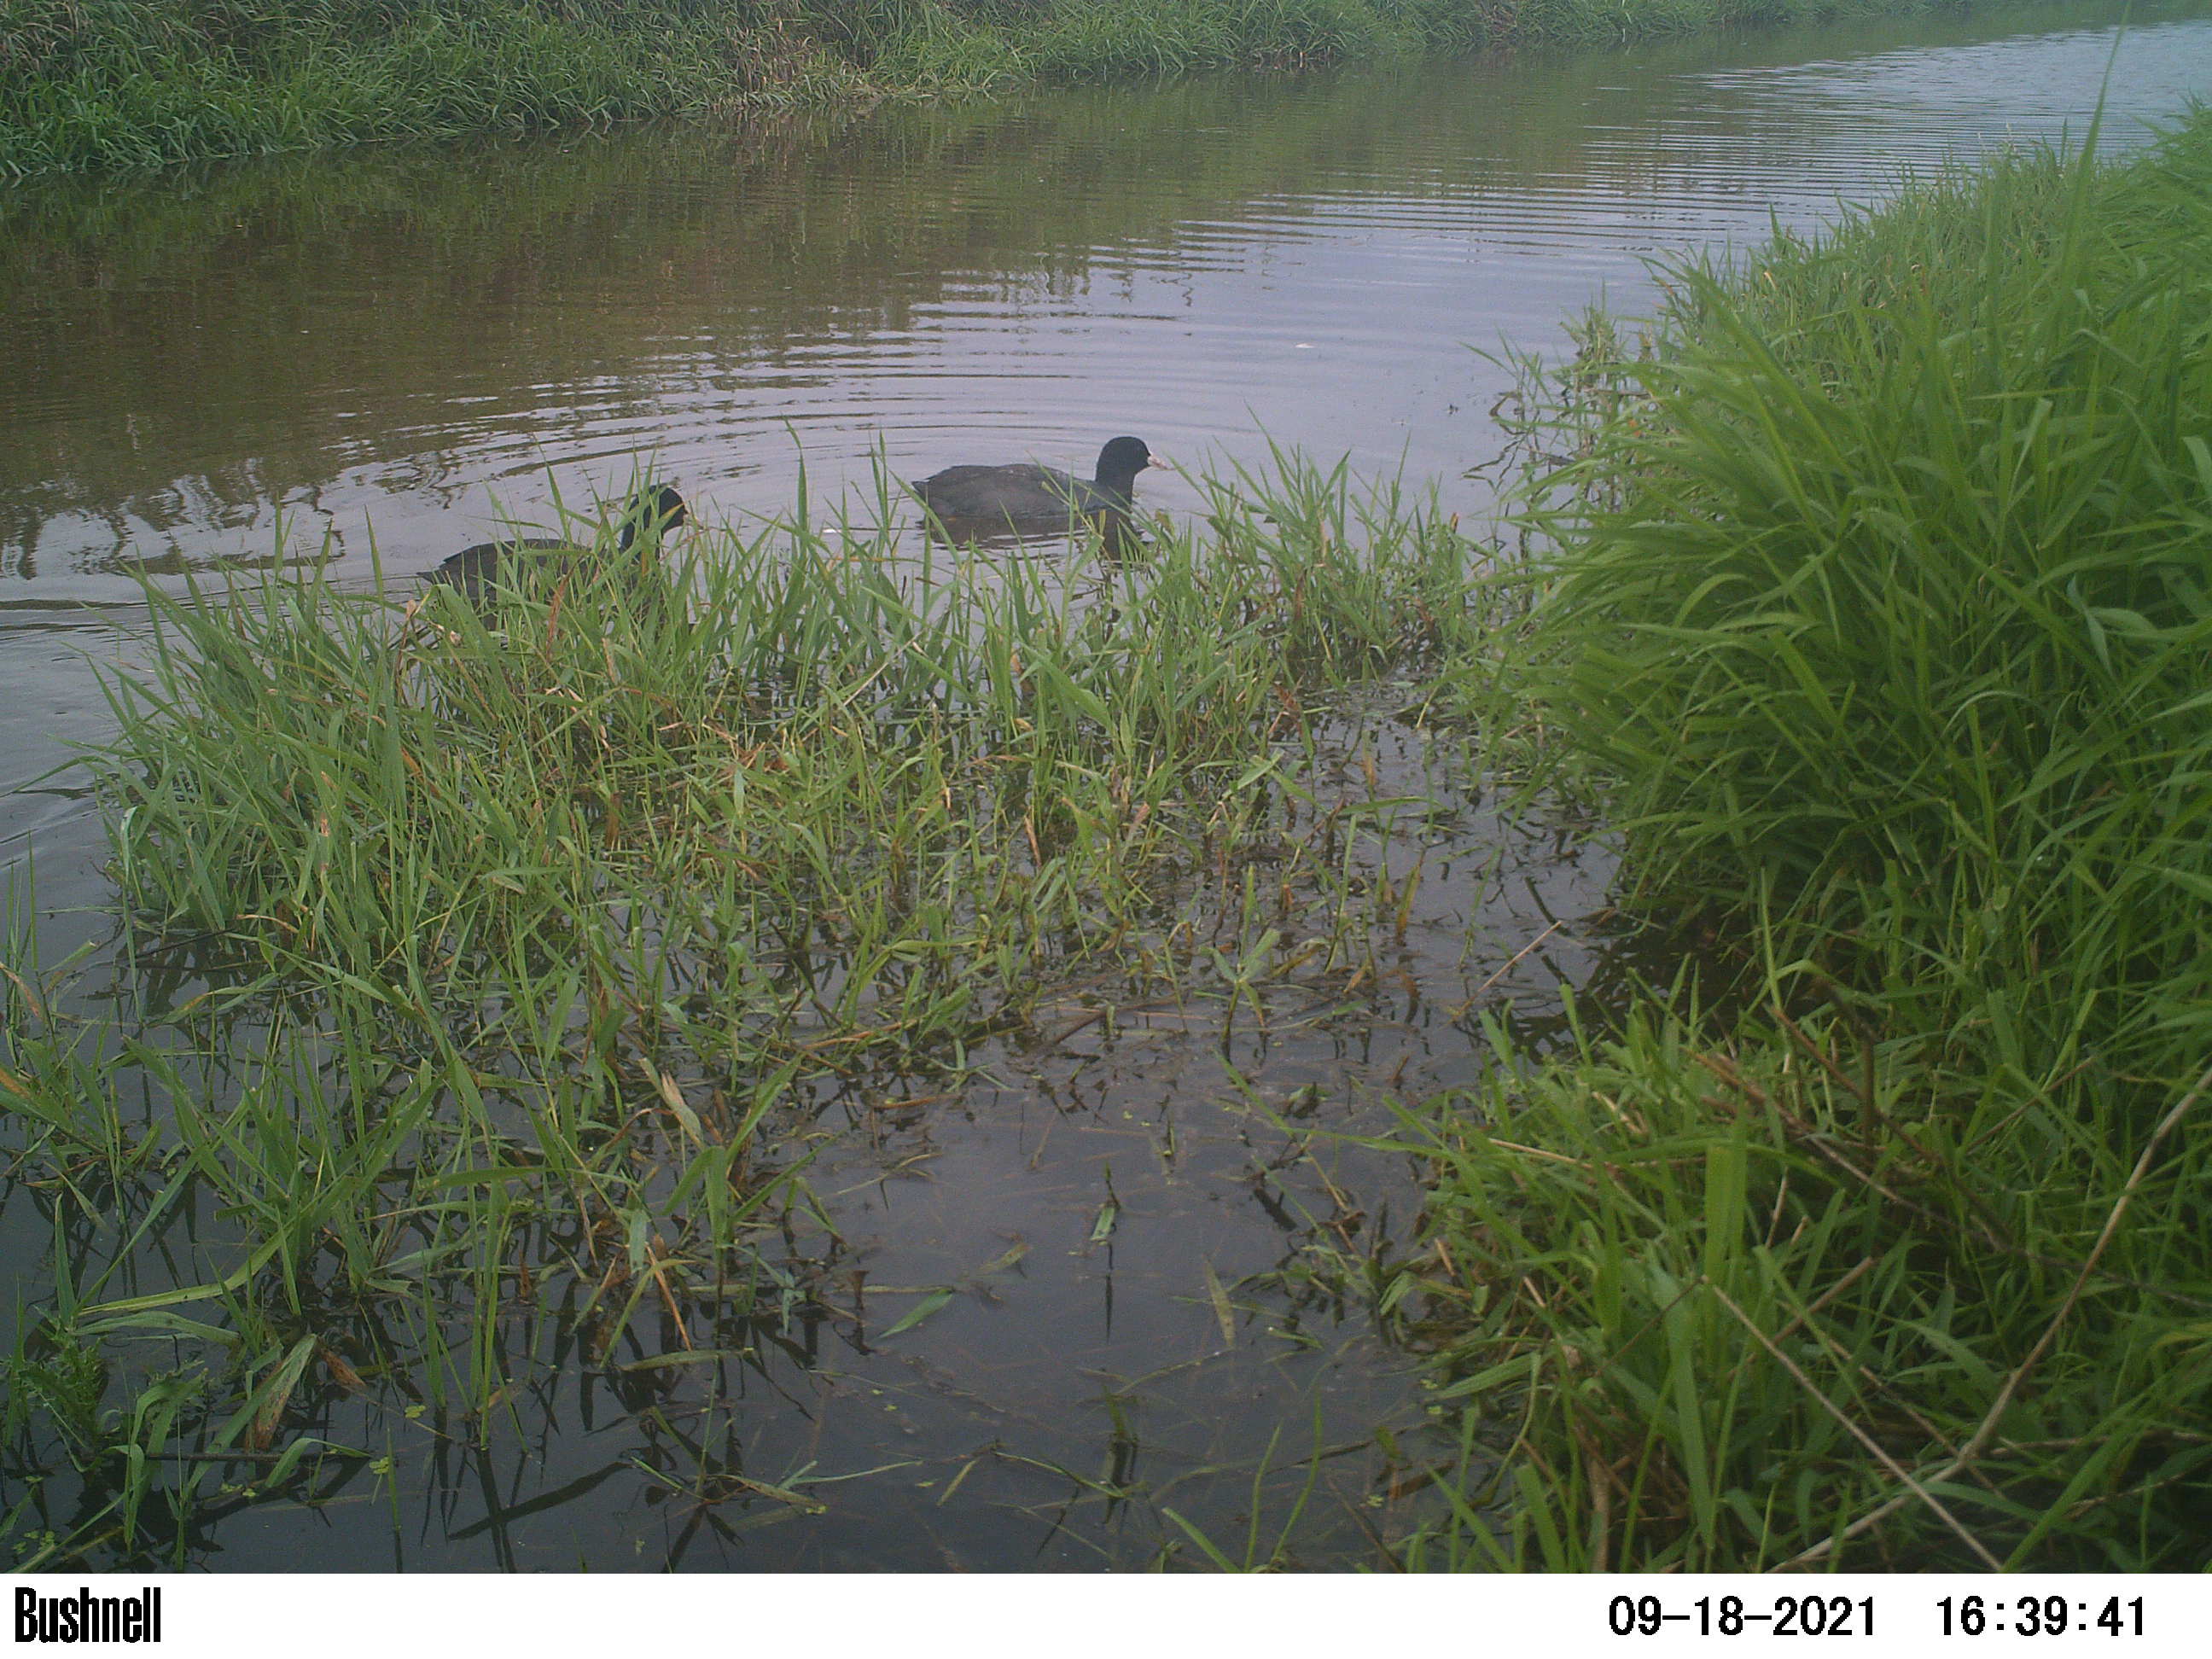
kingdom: Animalia
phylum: Chordata
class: Aves
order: Gruiformes
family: Rallidae
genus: Fulica
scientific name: Fulica atra
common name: Eurasian coot
